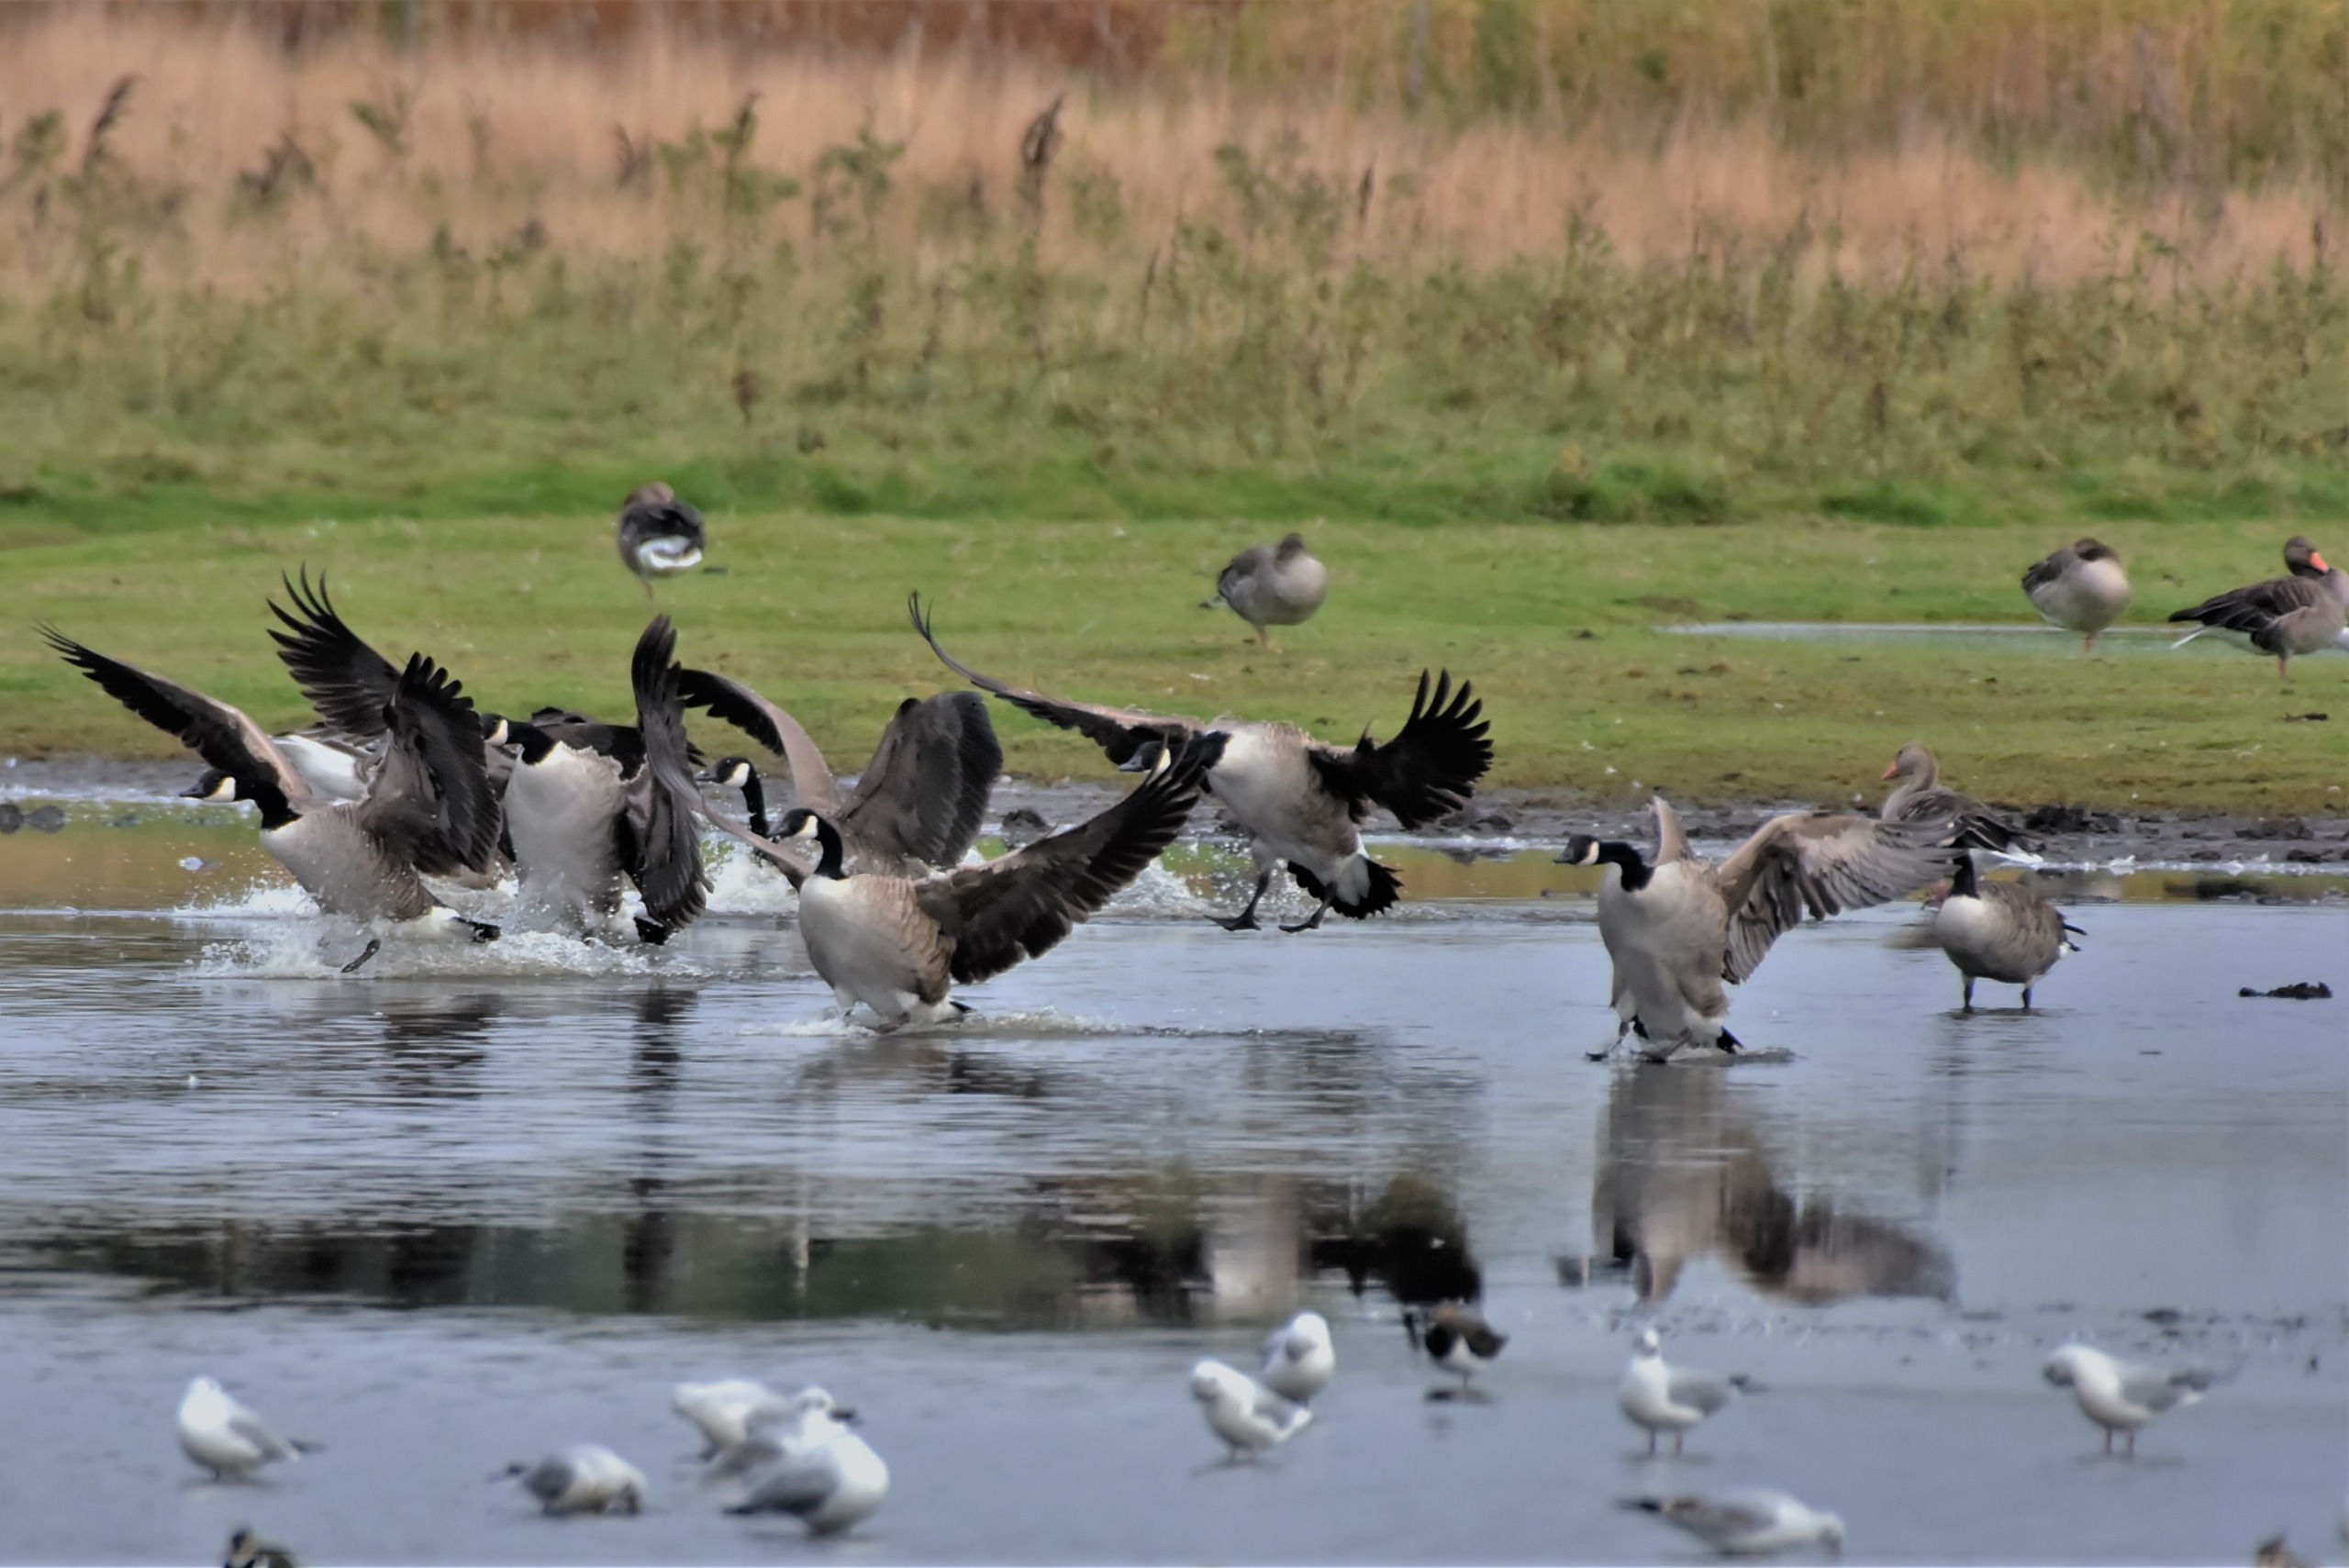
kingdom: Animalia
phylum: Chordata
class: Aves
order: Anseriformes
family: Anatidae
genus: Branta
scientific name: Branta canadensis
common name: Canadagås
